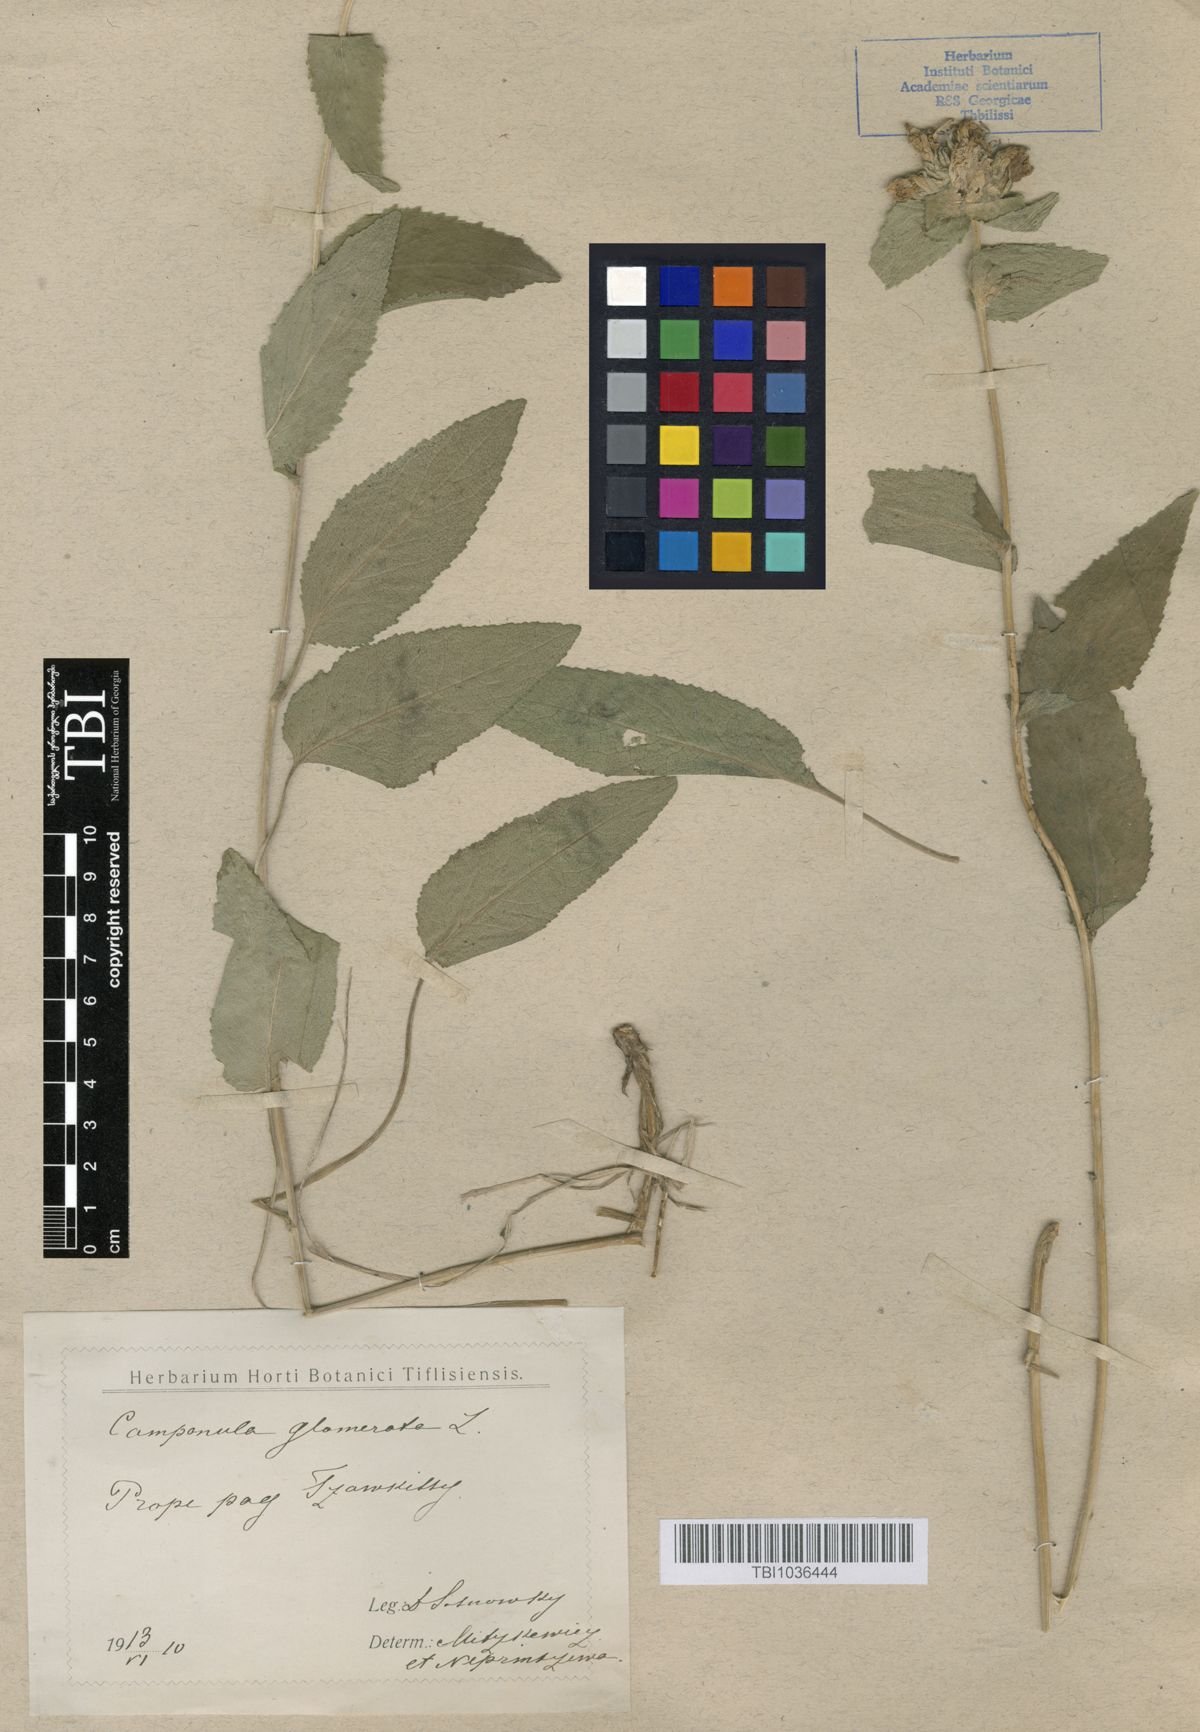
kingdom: Plantae
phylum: Tracheophyta
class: Magnoliopsida
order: Asterales
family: Campanulaceae
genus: Campanula
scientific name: Campanula glomerata
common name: Clustered bellflower
